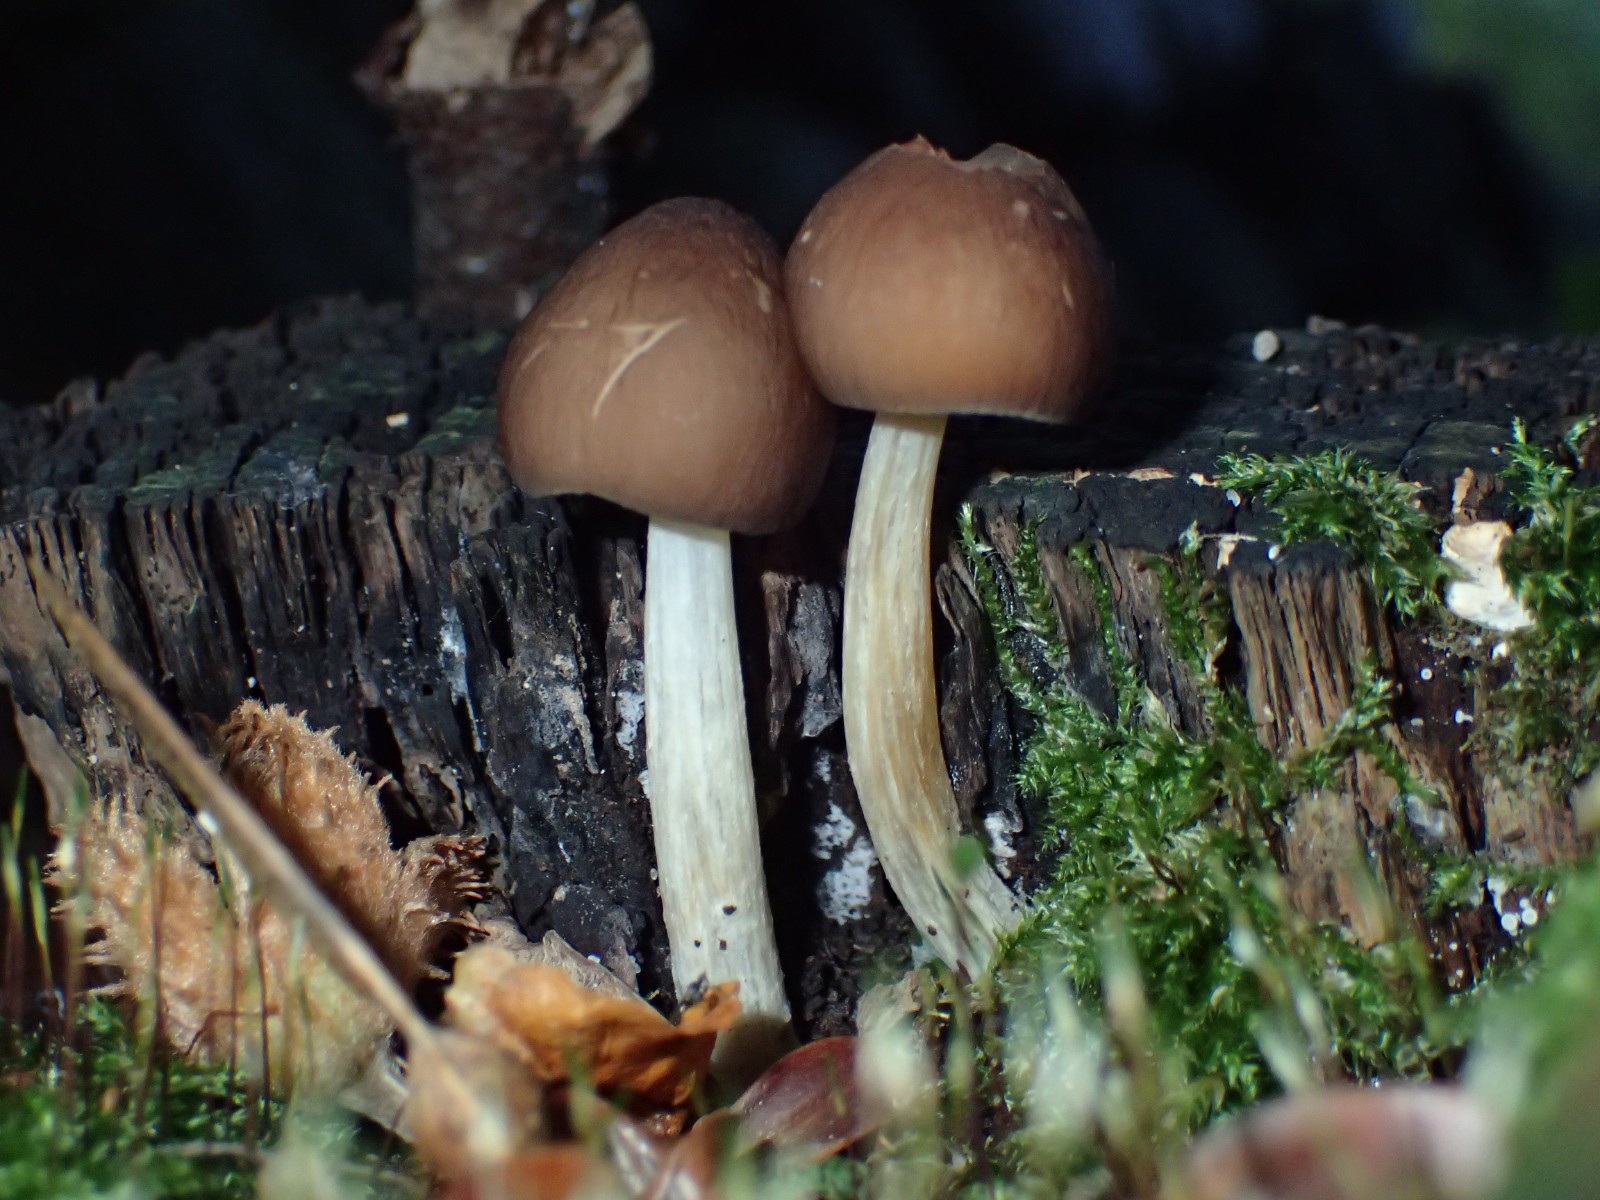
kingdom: Fungi
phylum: Basidiomycota
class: Agaricomycetes
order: Agaricales
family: Pluteaceae
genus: Pluteus
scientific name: Pluteus phlebophorus
